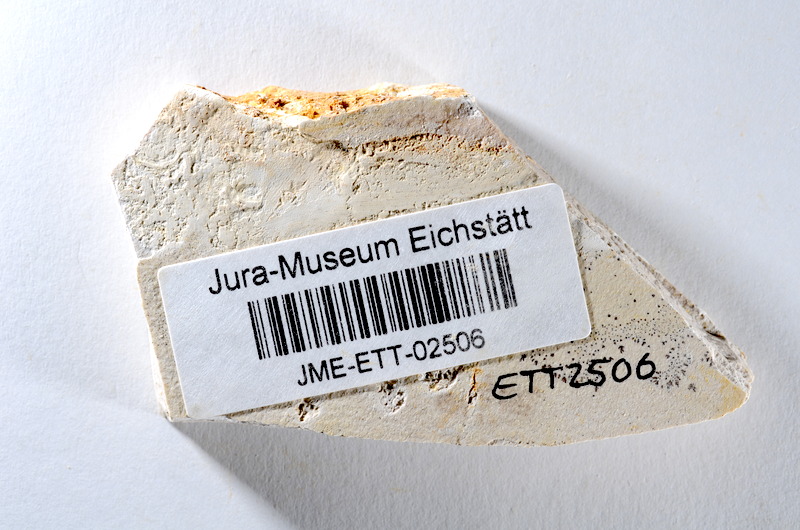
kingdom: Animalia
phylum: Chordata
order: Salmoniformes
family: Orthogonikleithridae
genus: Orthogonikleithrus
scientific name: Orthogonikleithrus hoelli
